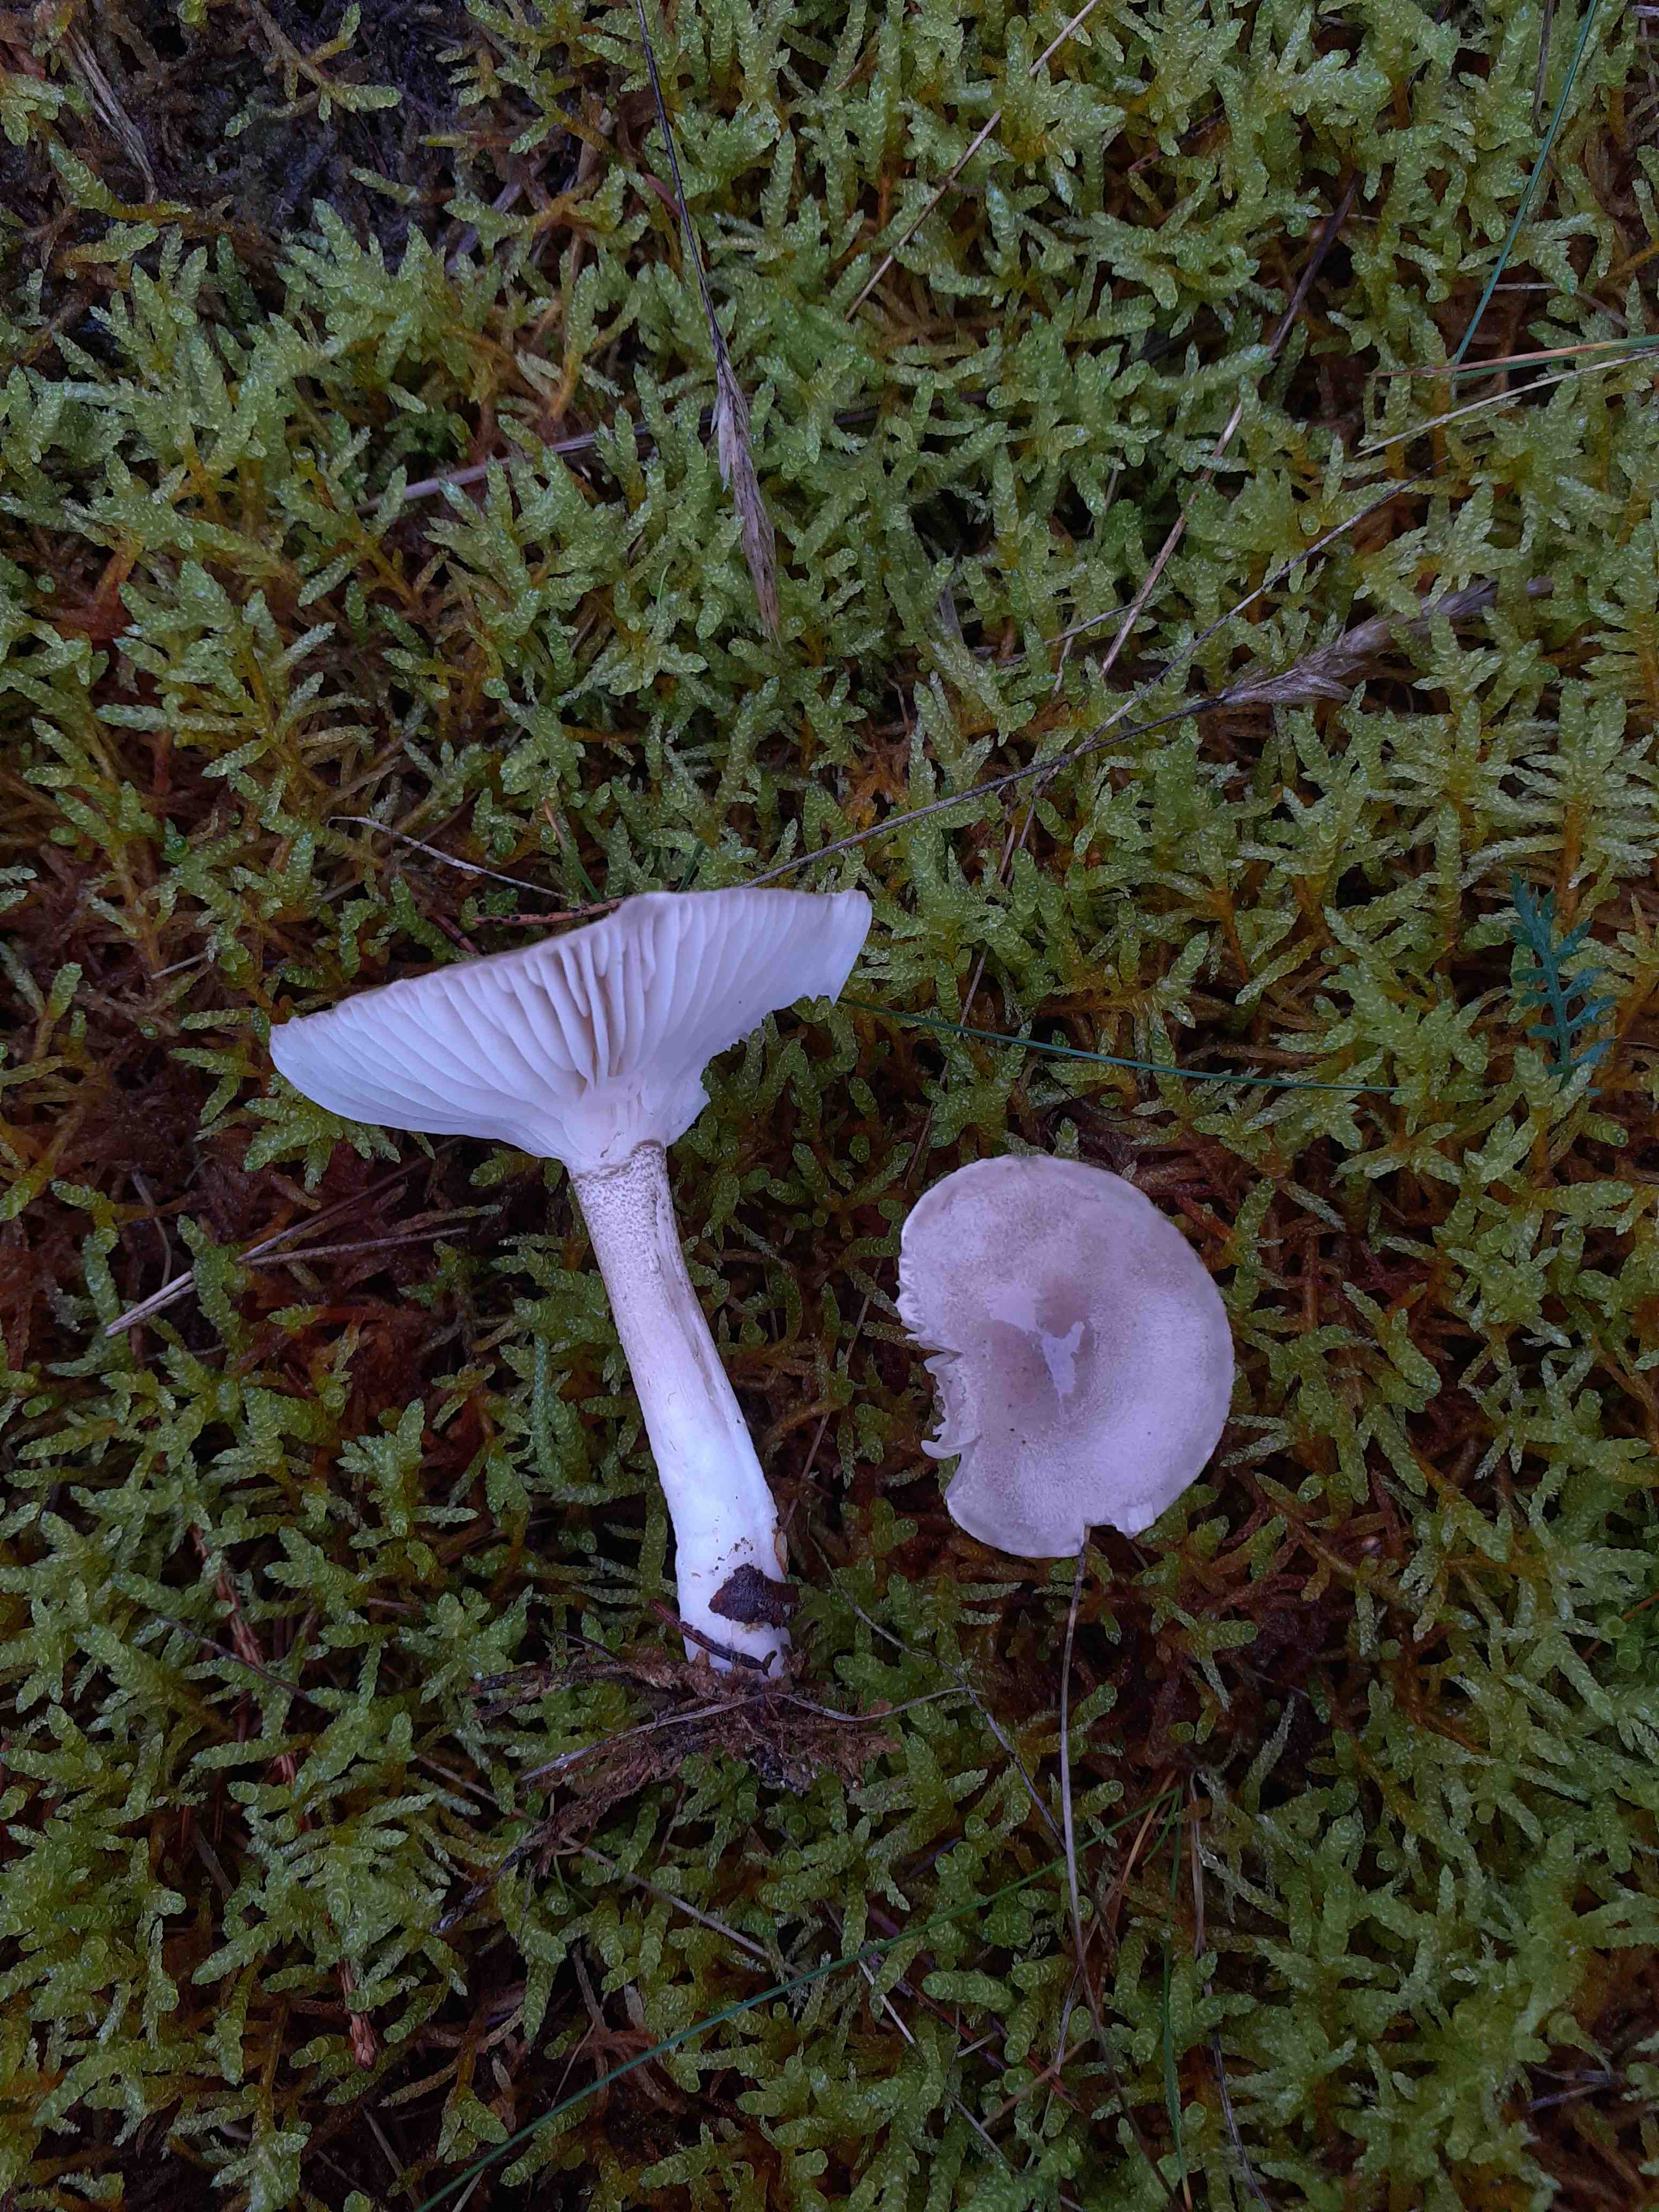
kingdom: Fungi
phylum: Basidiomycota
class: Agaricomycetes
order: Agaricales
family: Hygrophoraceae
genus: Hygrophorus
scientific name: Hygrophorus agathosmus
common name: vellugtende sneglehat
